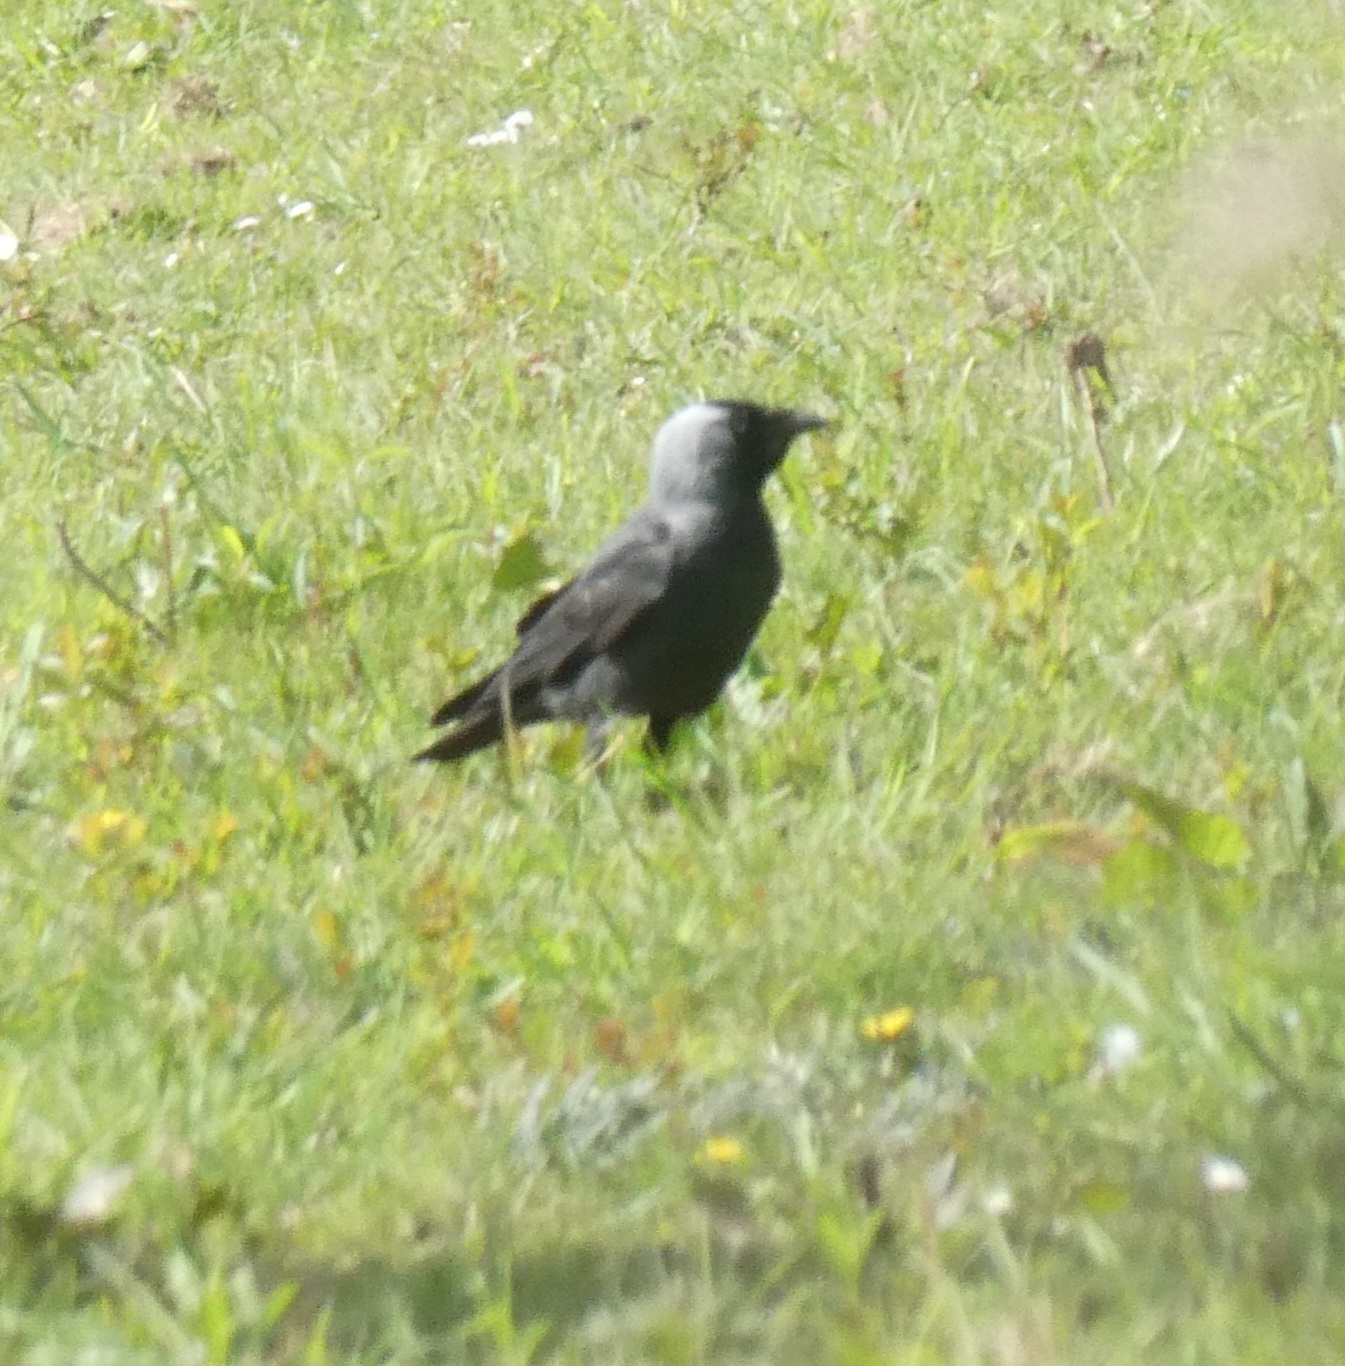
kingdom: Animalia
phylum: Chordata
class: Aves
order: Passeriformes
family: Corvidae
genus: Coloeus
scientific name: Coloeus monedula
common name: Allike
